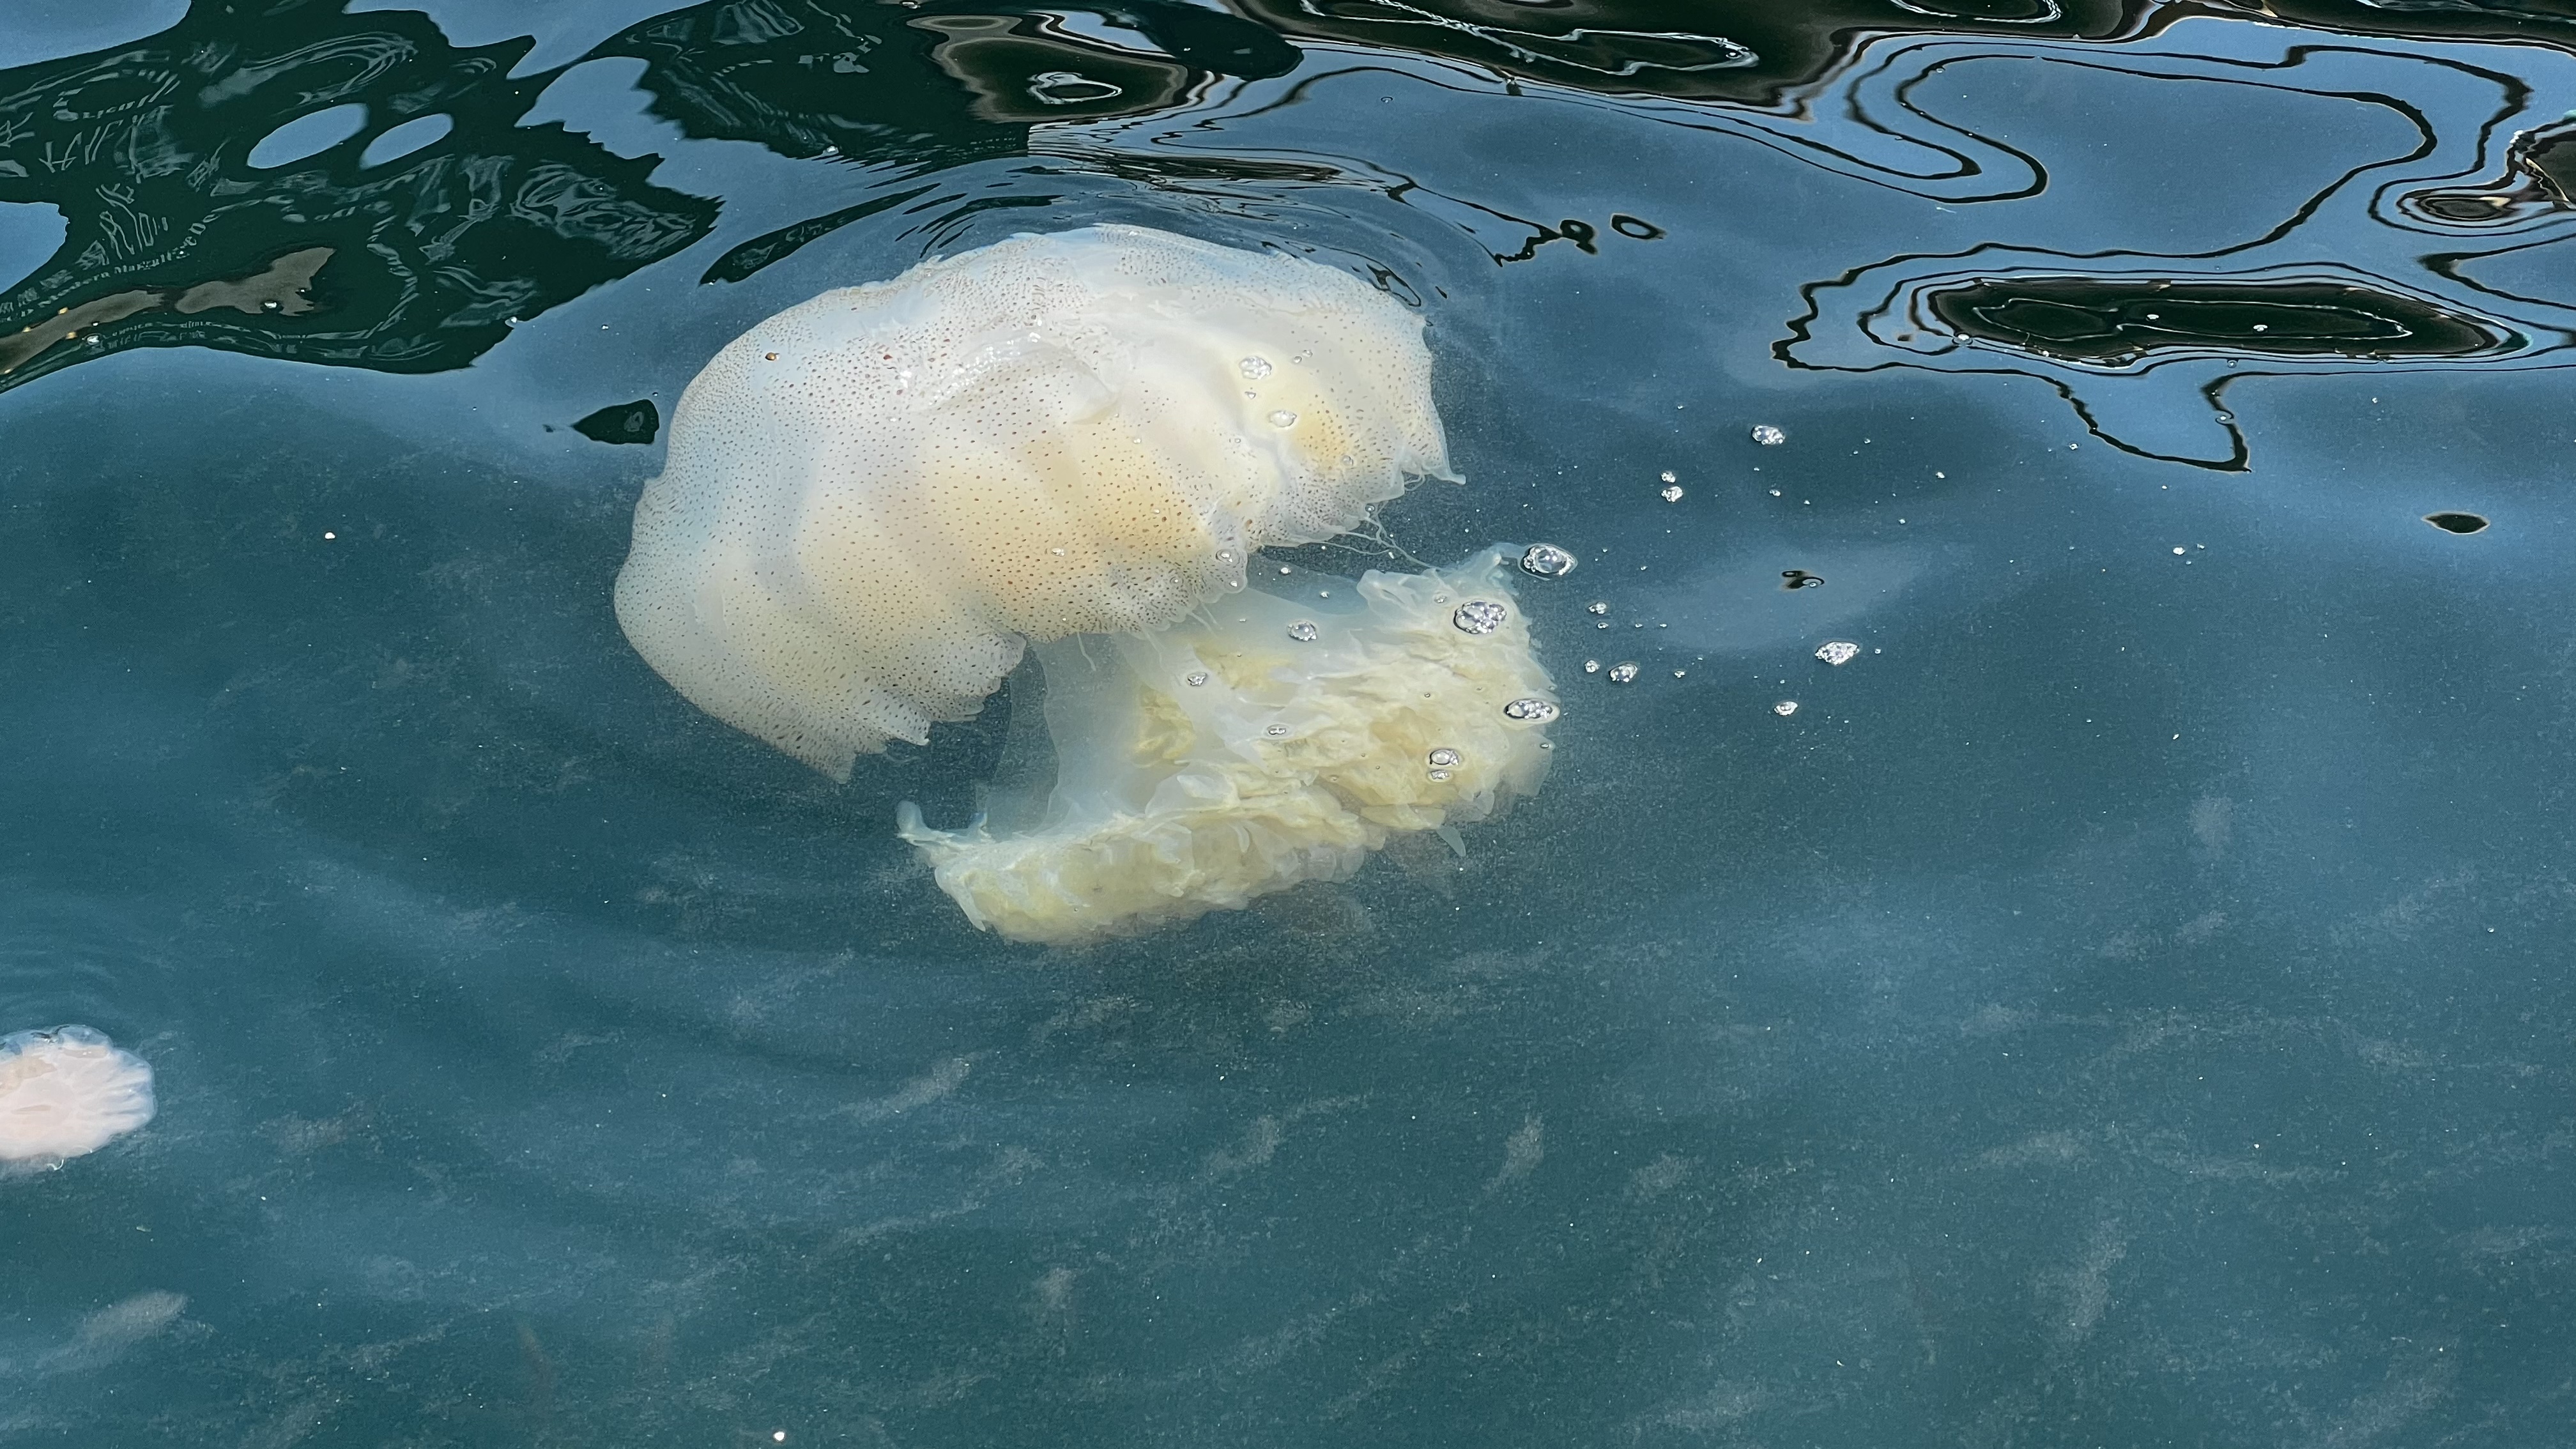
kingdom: Animalia
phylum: Cnidaria
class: Scyphozoa
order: Rhizostomeae
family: Rhizostomatidae
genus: Rhopilema
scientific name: Rhopilema hispidum
